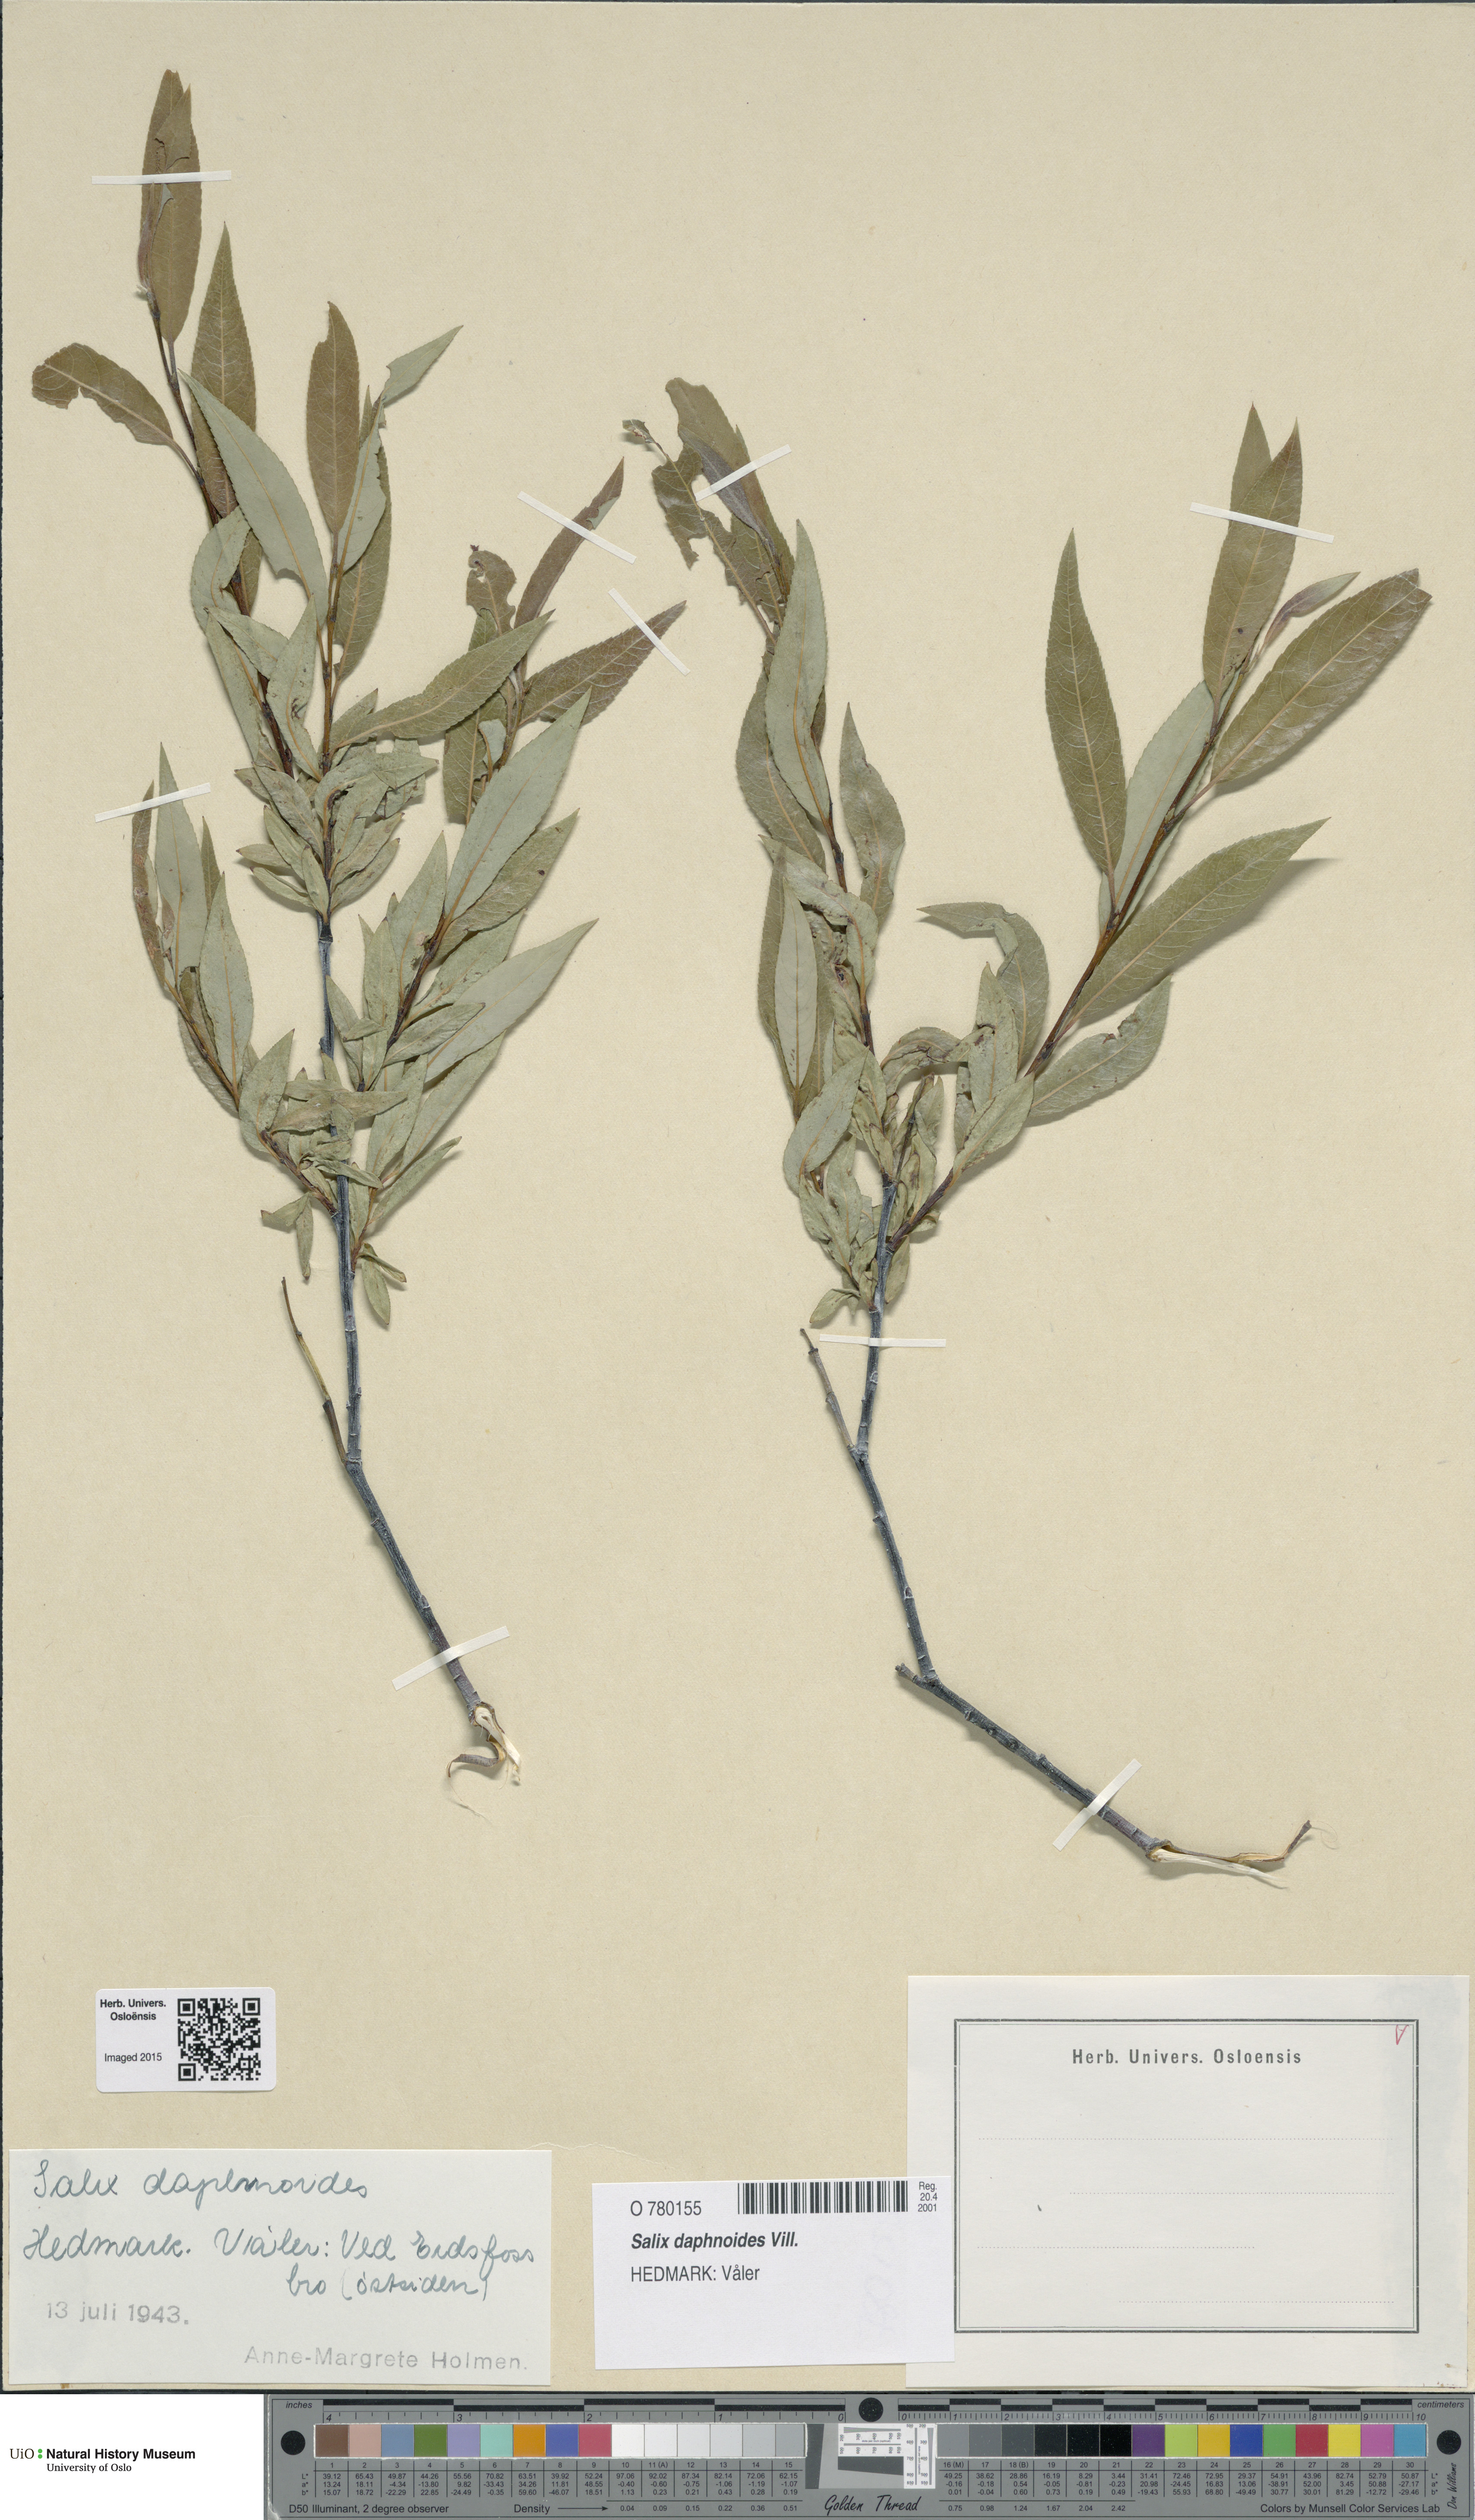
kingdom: Plantae
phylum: Tracheophyta
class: Magnoliopsida
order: Malpighiales
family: Salicaceae
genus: Salix
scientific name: Salix daphnoides
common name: European violet-willow
